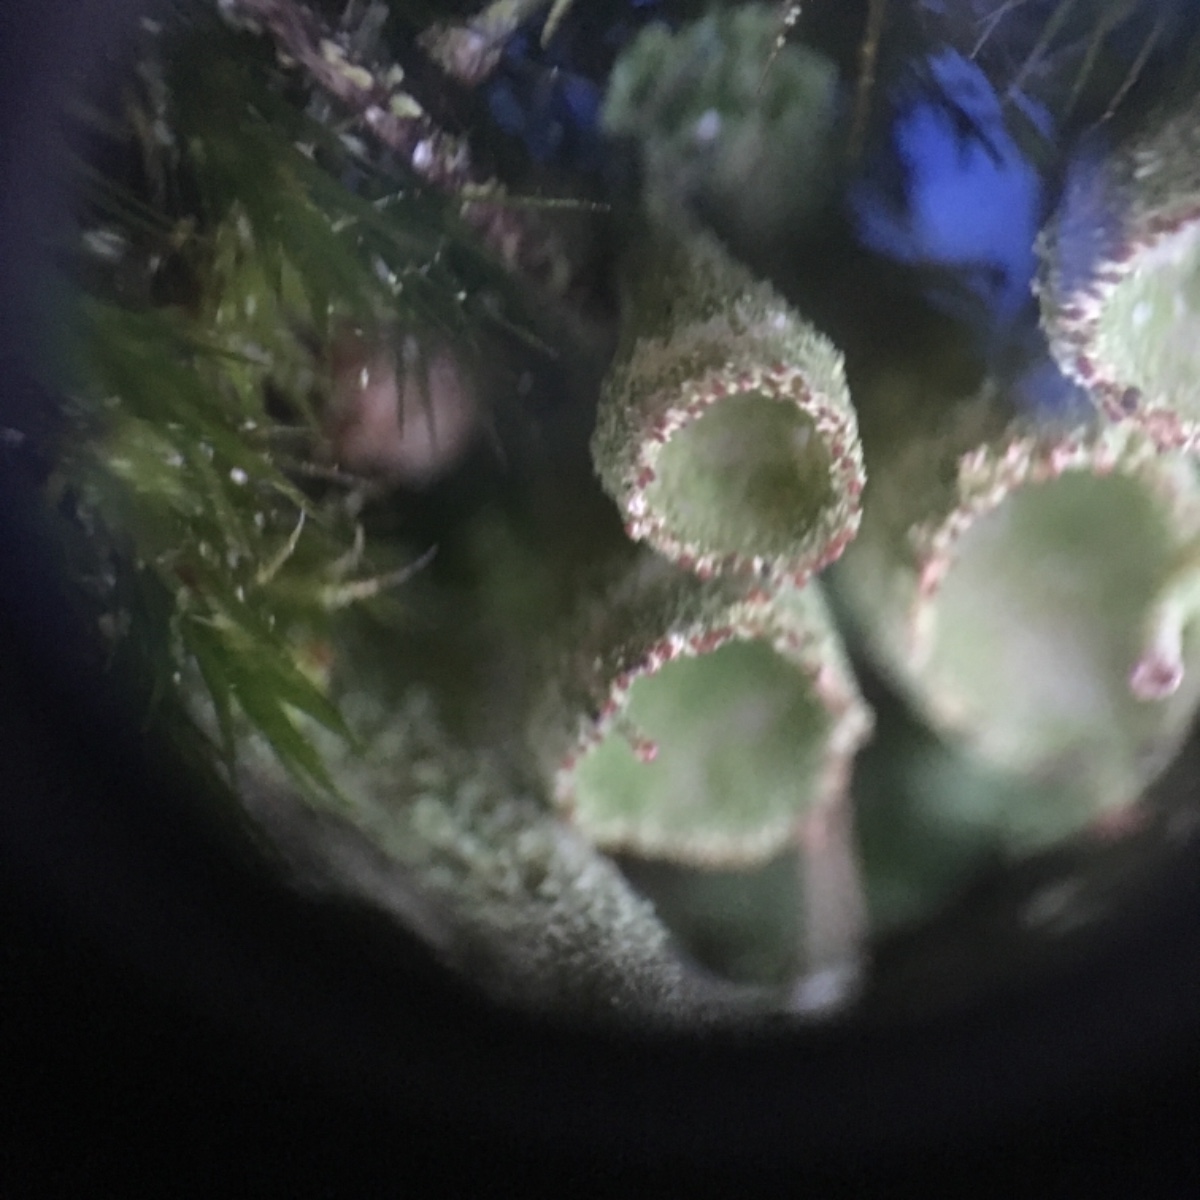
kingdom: Fungi
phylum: Ascomycota
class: Lecanoromycetes
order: Lecanorales
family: Cladoniaceae
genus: Cladonia
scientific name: Cladonia
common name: brungrøn bægerlav
